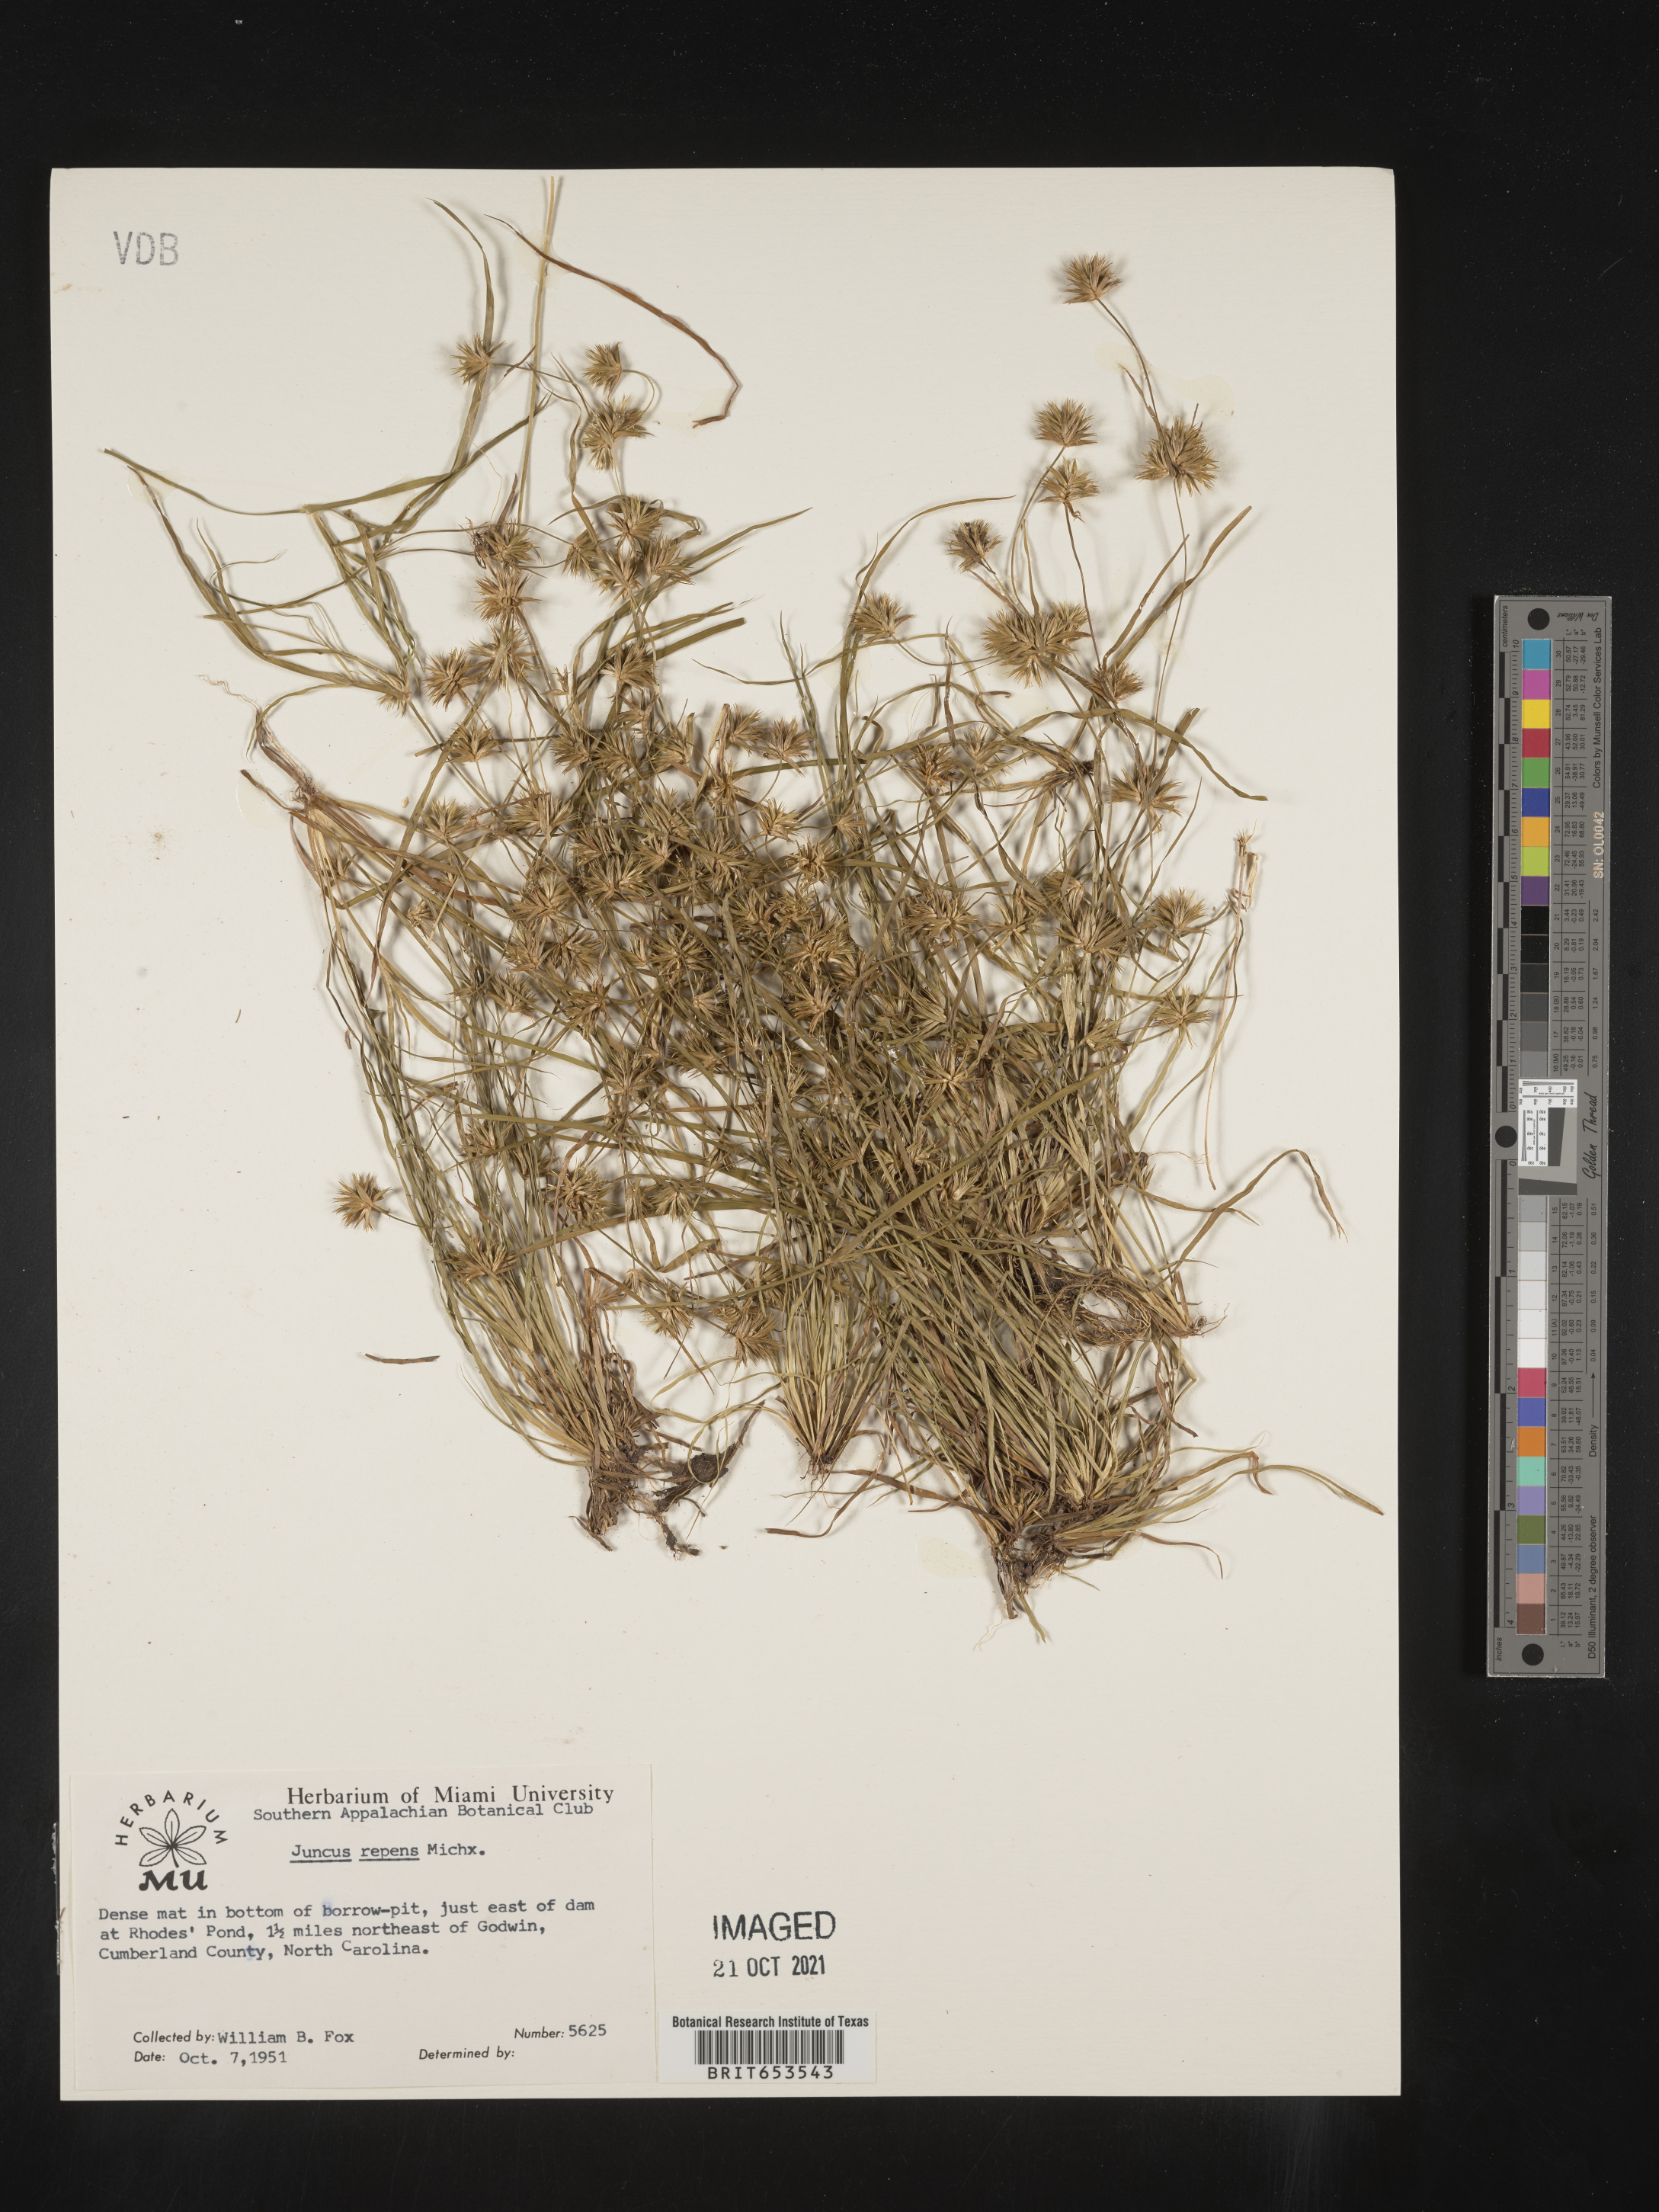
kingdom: Plantae
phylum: Tracheophyta
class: Liliopsida
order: Poales
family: Juncaceae
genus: Juncus
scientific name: Juncus repens
